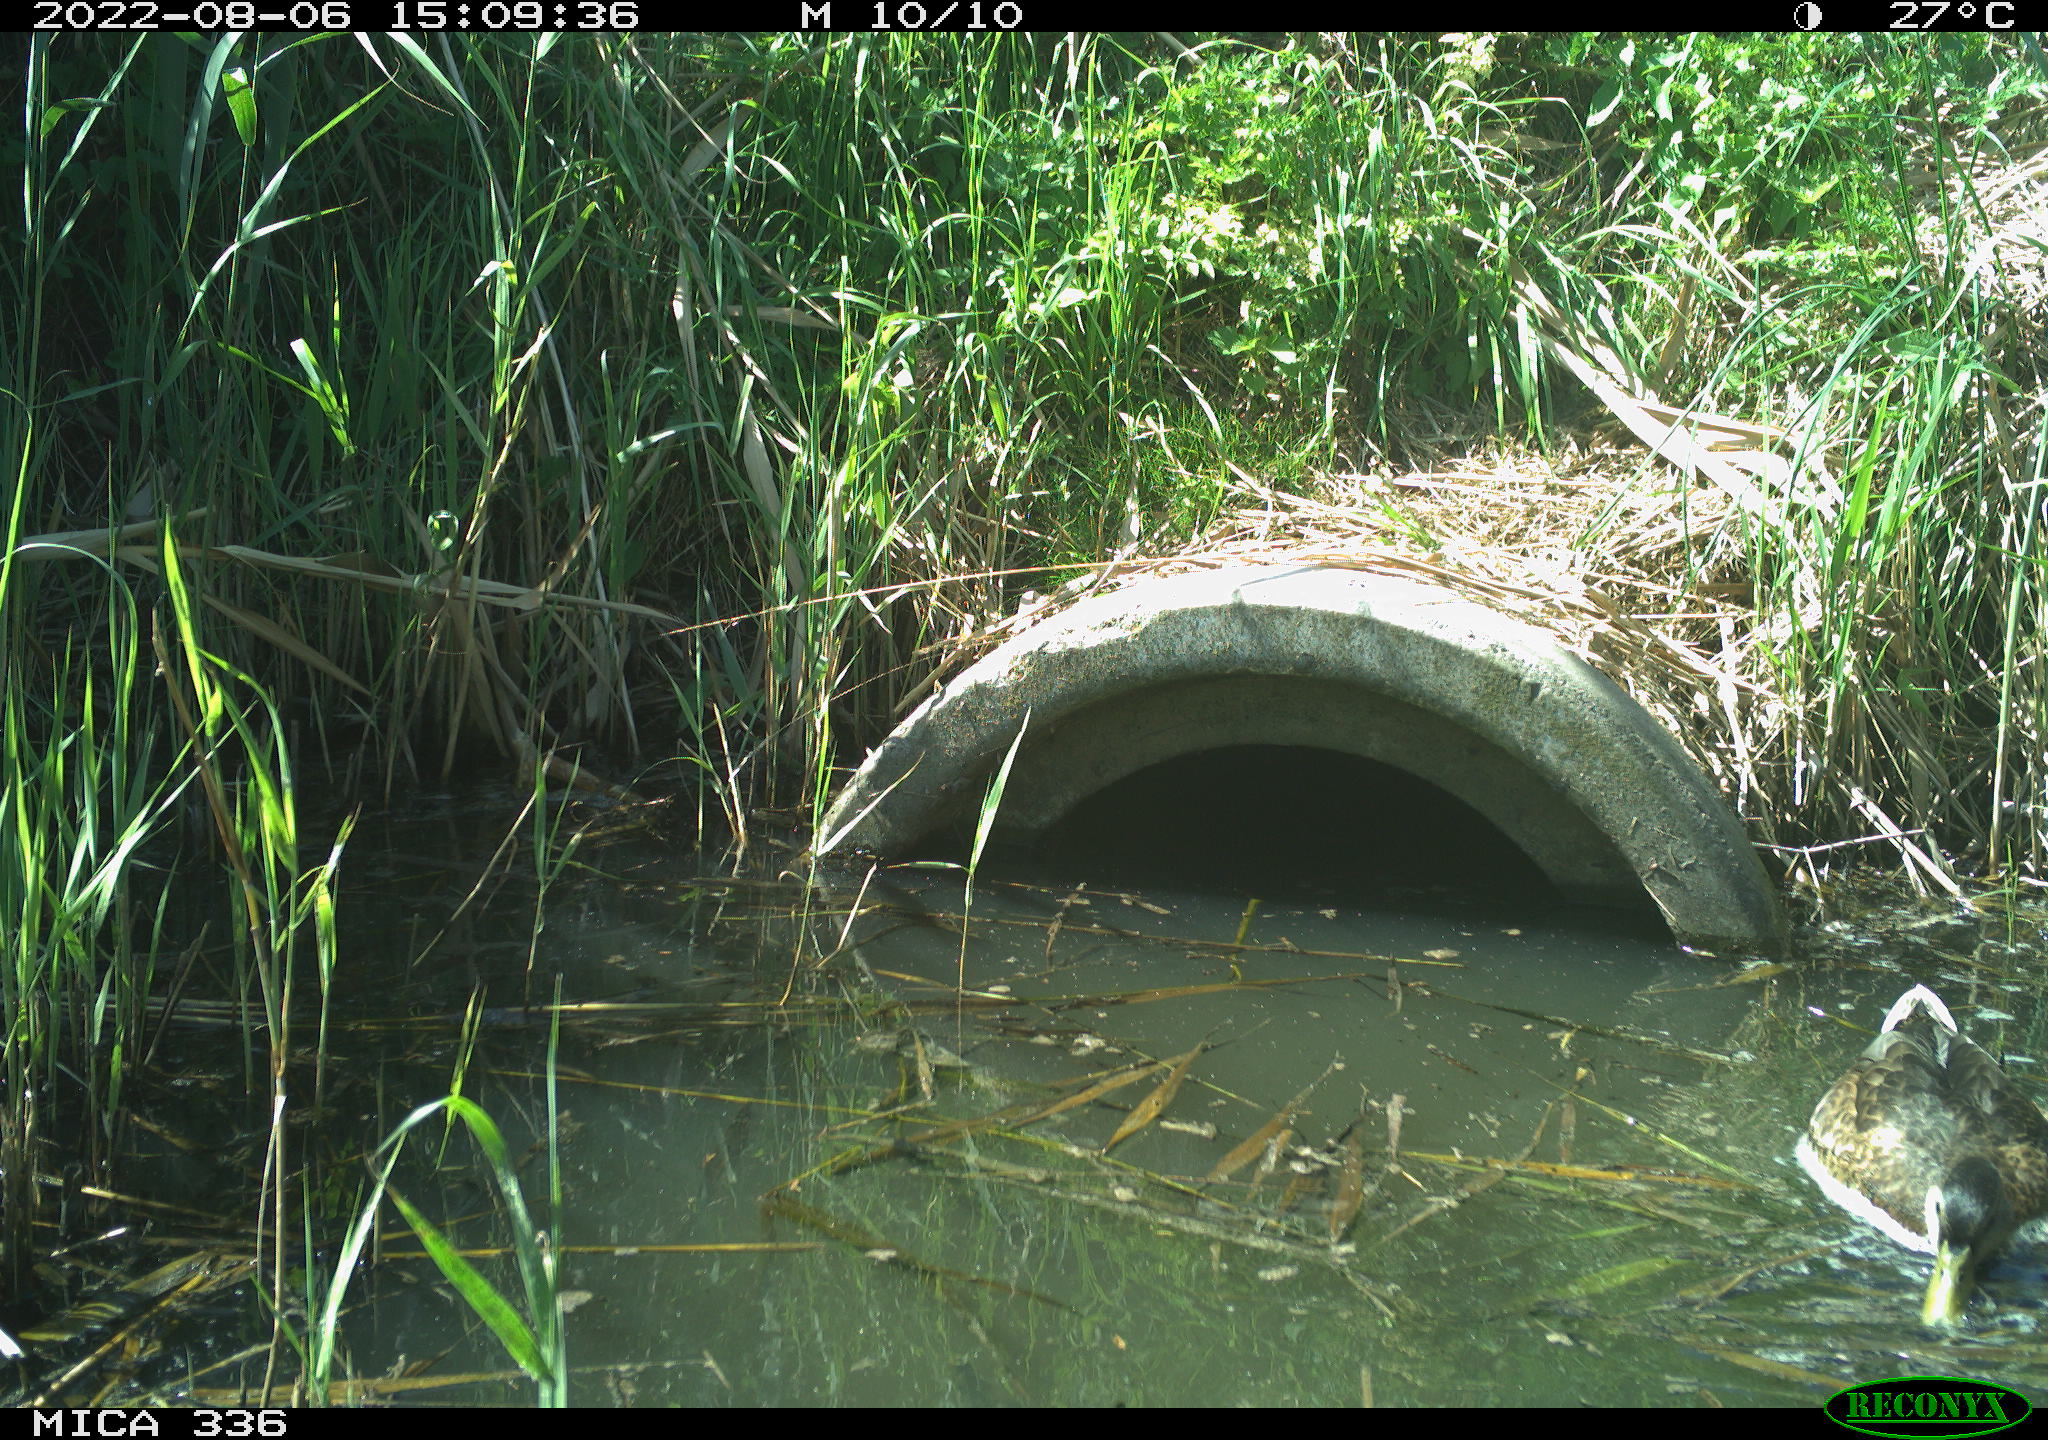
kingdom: Animalia
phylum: Chordata
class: Aves
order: Anseriformes
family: Anatidae
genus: Anas
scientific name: Anas platyrhynchos
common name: Mallard
